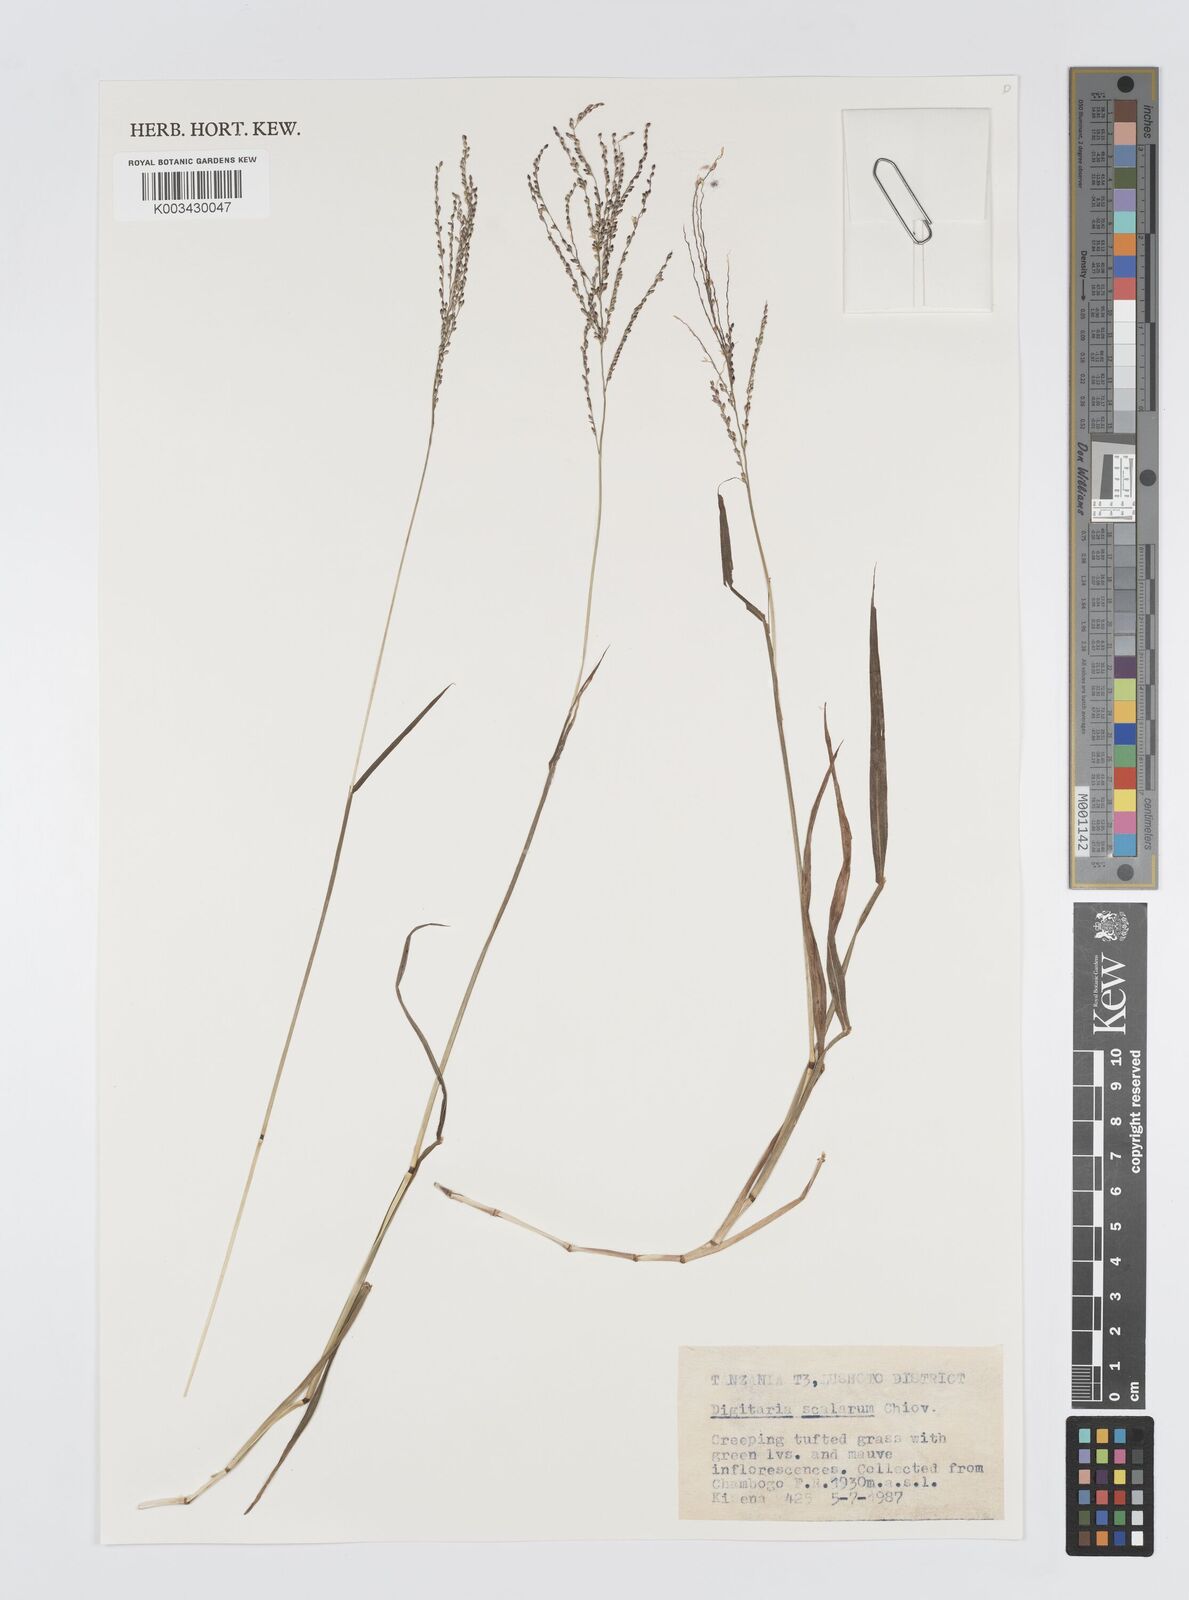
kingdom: Plantae
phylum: Tracheophyta
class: Liliopsida
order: Poales
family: Poaceae
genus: Digitaria
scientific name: Digitaria abyssinica
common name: African couchgrass
